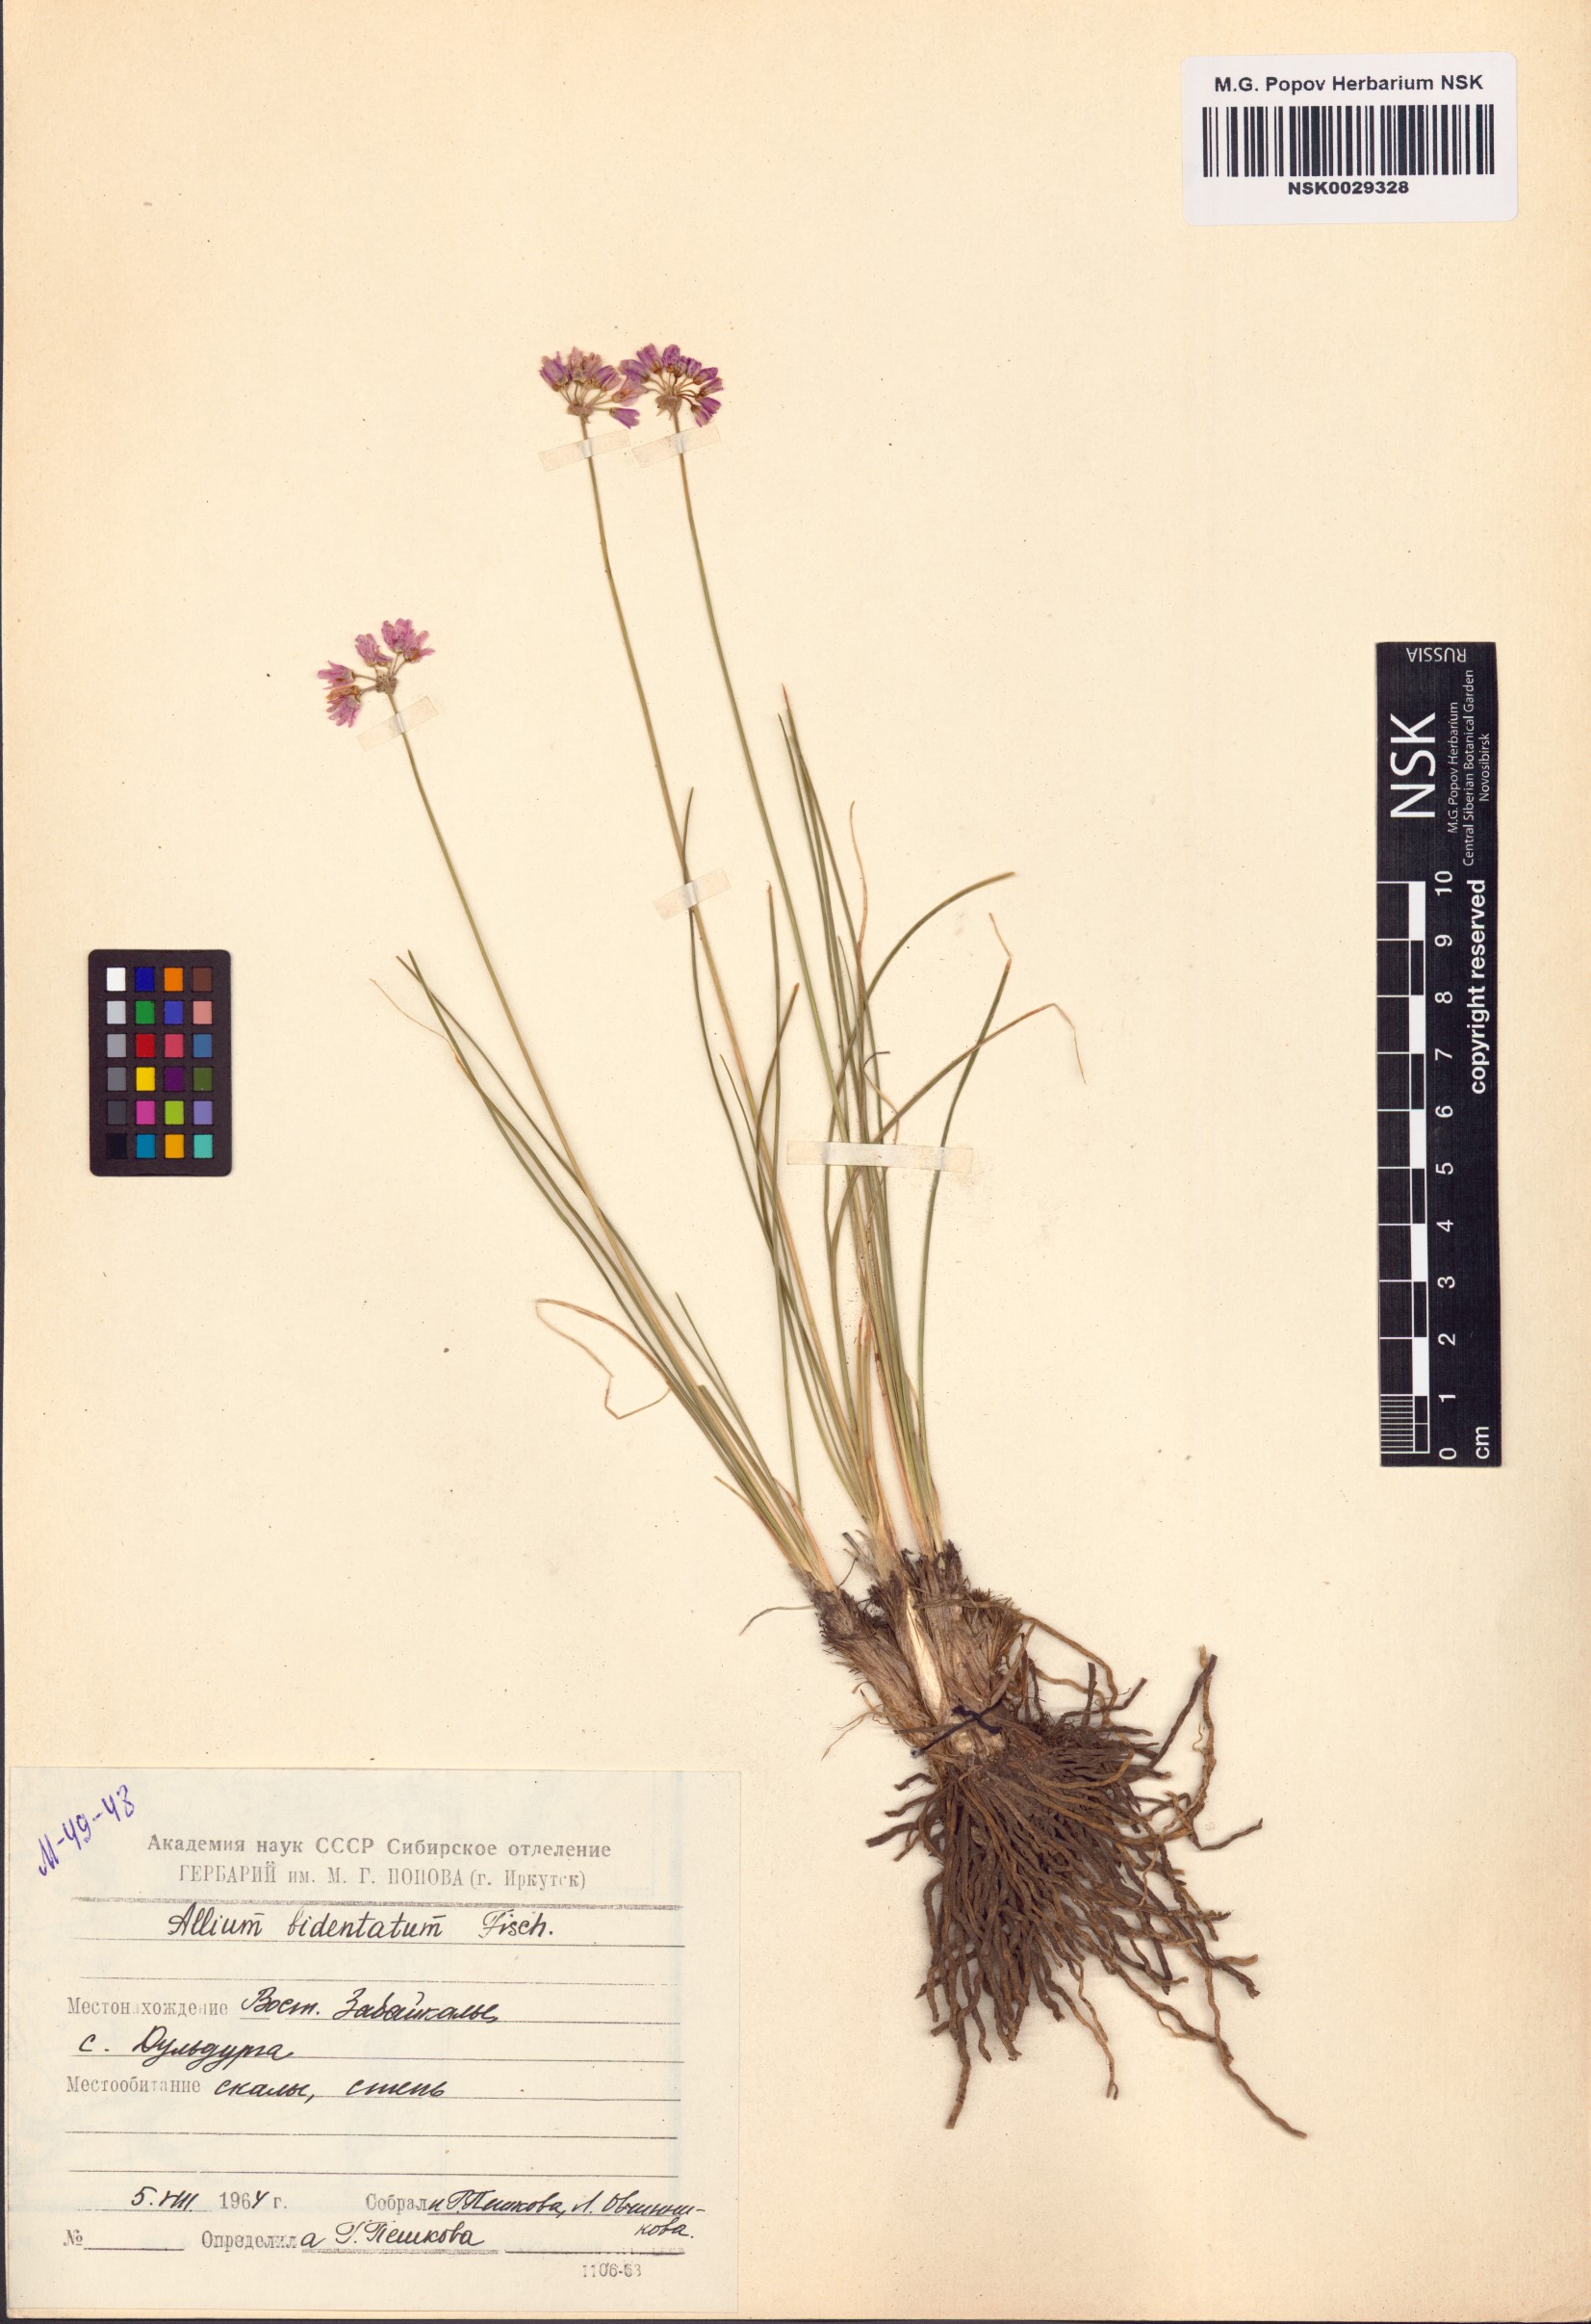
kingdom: Plantae
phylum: Tracheophyta
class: Liliopsida
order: Asparagales
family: Amaryllidaceae
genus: Allium
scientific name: Allium bidentatum
